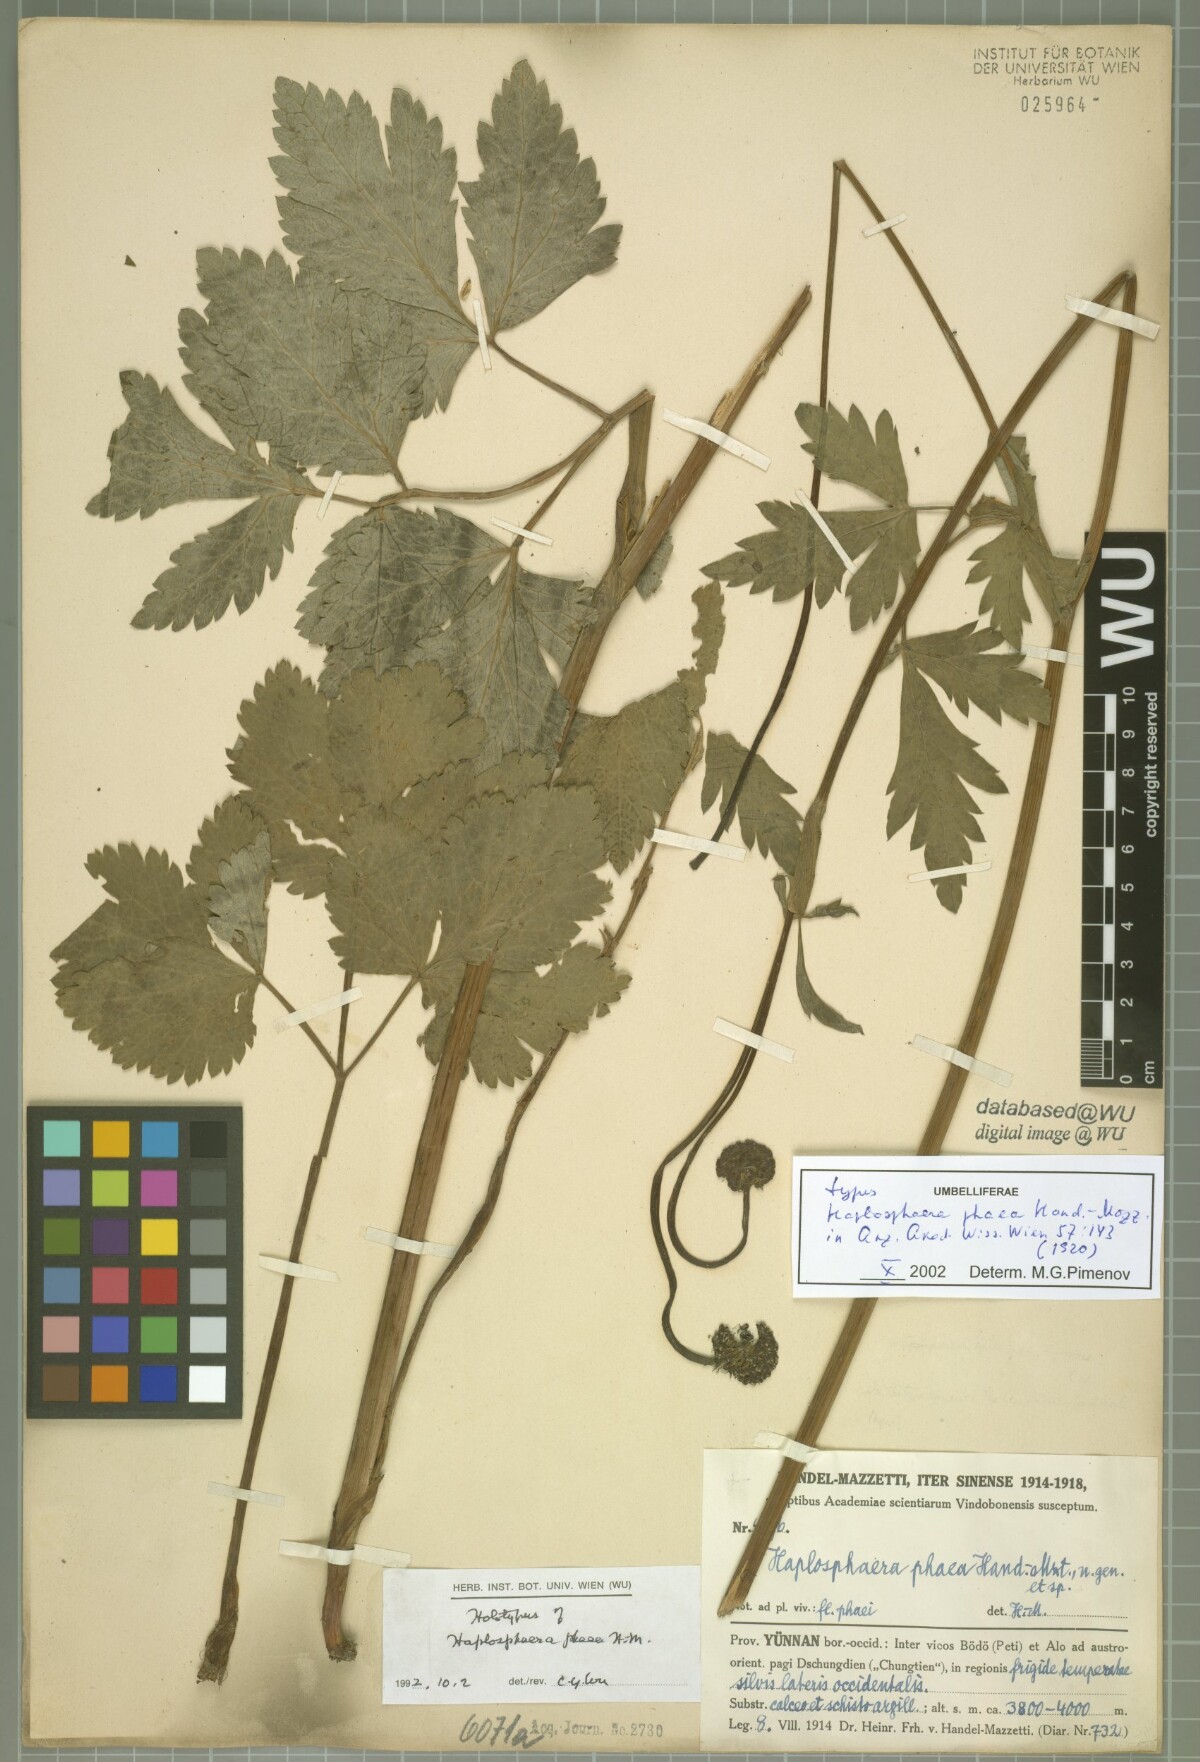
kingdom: Plantae
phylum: Tracheophyta
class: Magnoliopsida
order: Apiales
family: Apiaceae
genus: Hansenia
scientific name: Hansenia phaea
